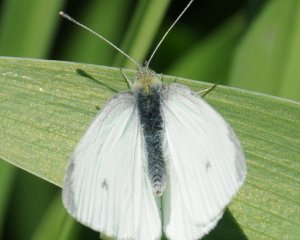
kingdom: Animalia
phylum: Arthropoda
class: Insecta
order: Lepidoptera
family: Pieridae
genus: Pieris
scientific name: Pieris rapae
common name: Cabbage White
